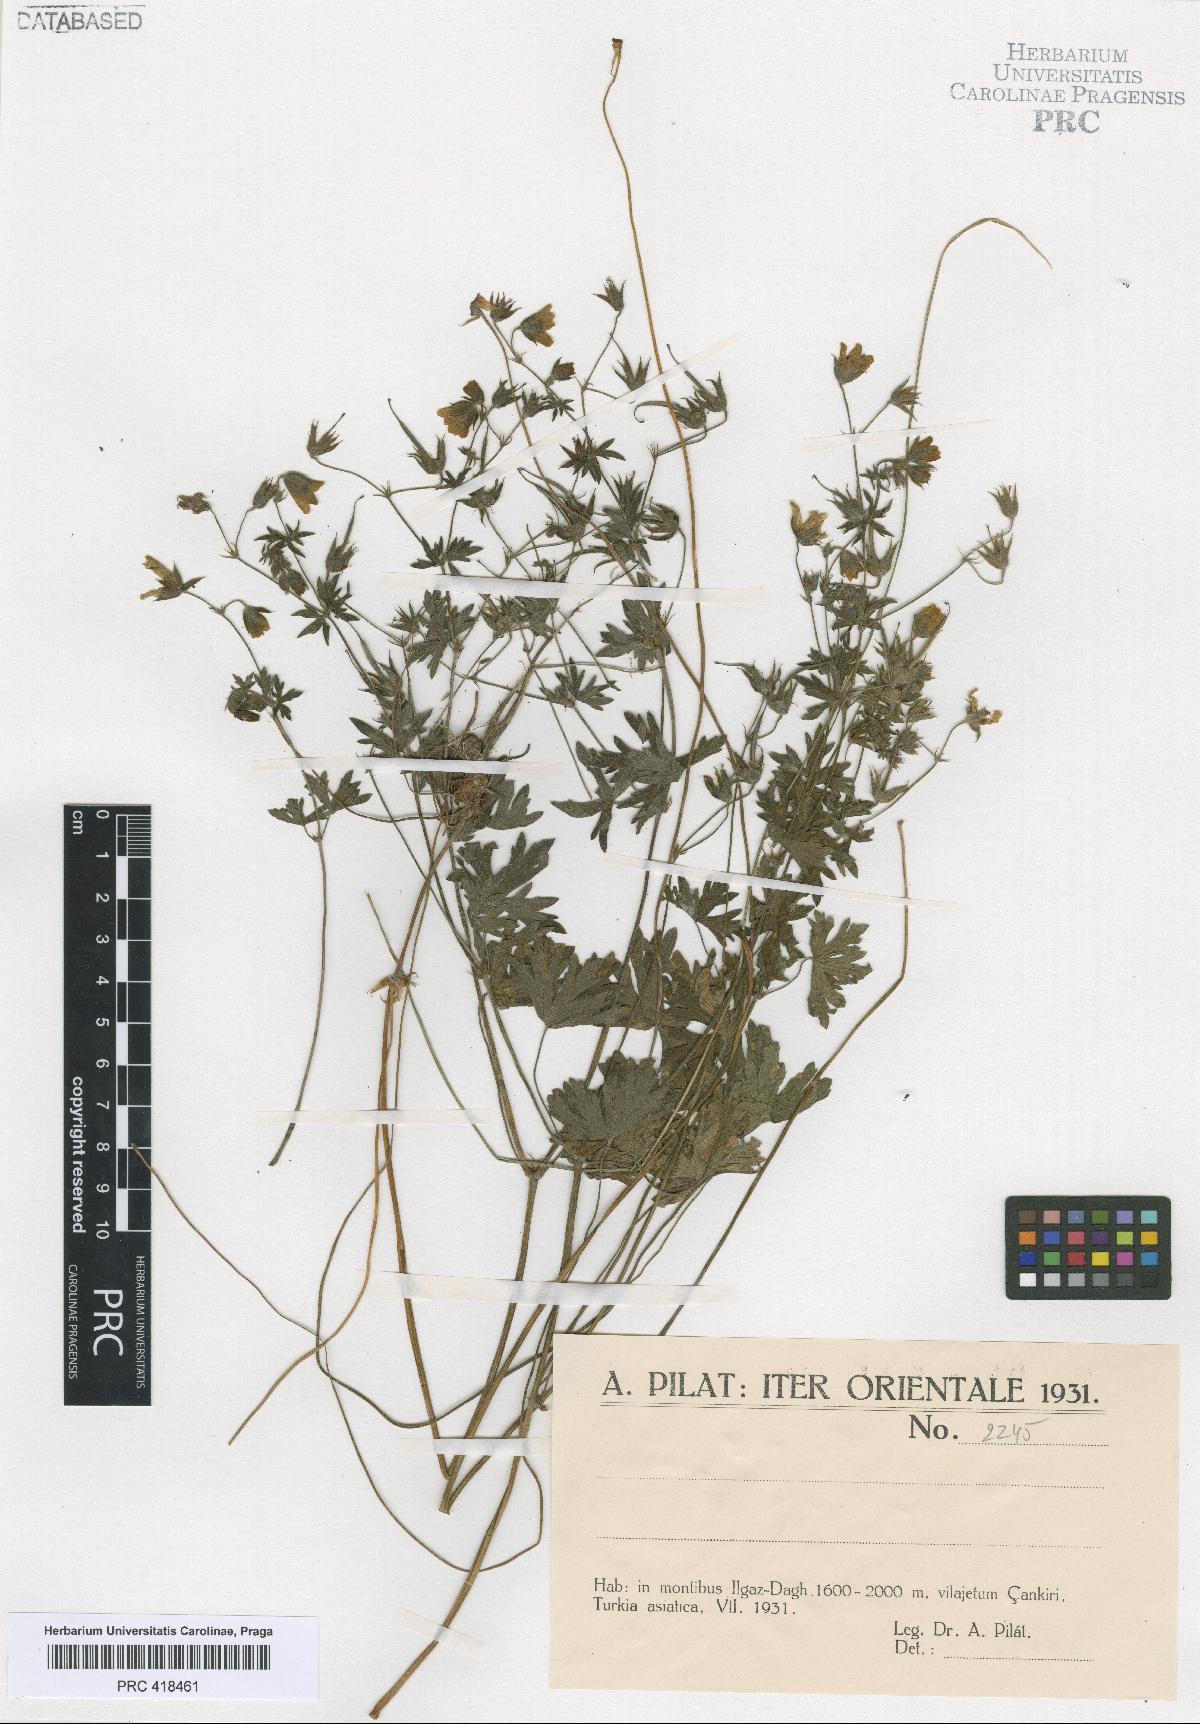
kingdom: Plantae
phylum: Tracheophyta
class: Magnoliopsida
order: Geraniales
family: Geraniaceae
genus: Geranium
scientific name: Geranium asphodeloides
